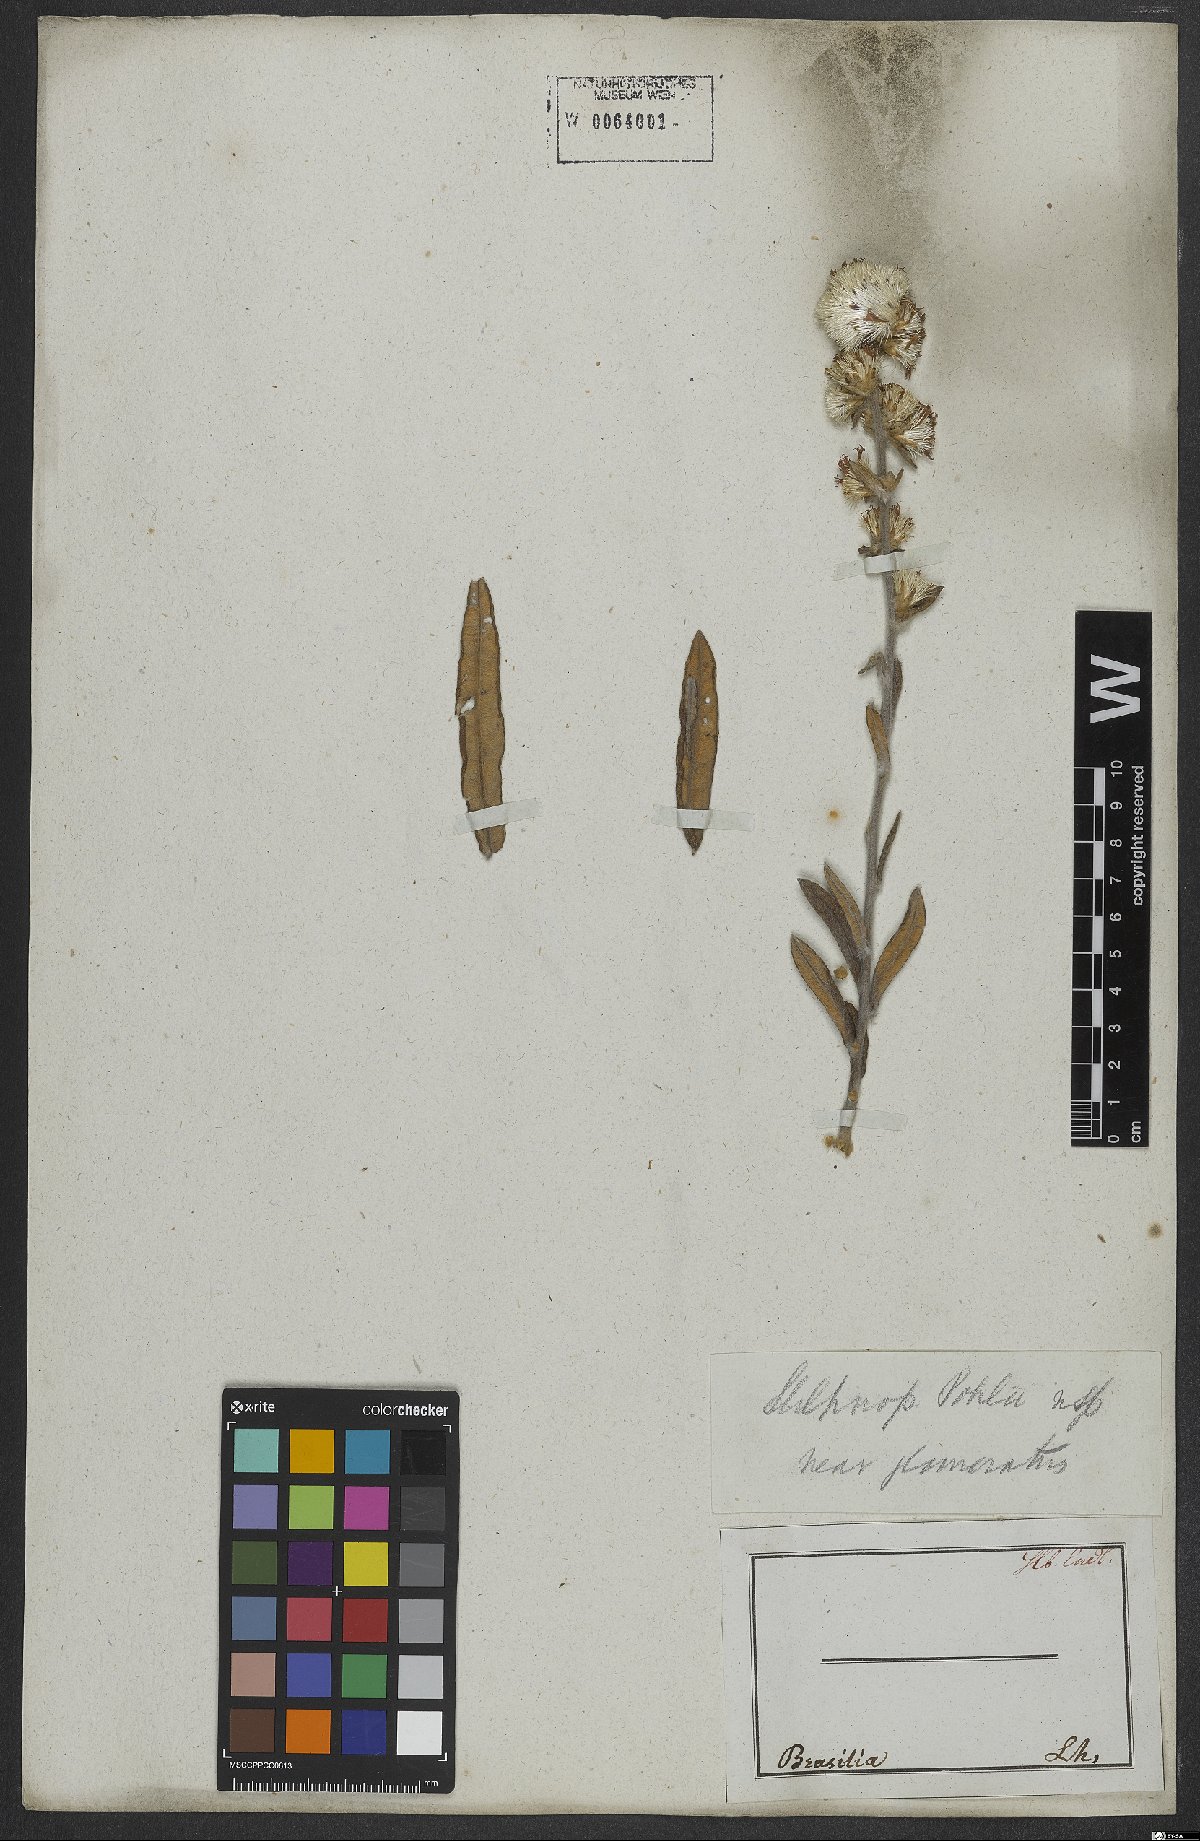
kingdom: Plantae
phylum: Tracheophyta
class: Magnoliopsida
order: Asterales
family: Asteraceae
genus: Stilpnopappus
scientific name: Stilpnopappus pohlii
